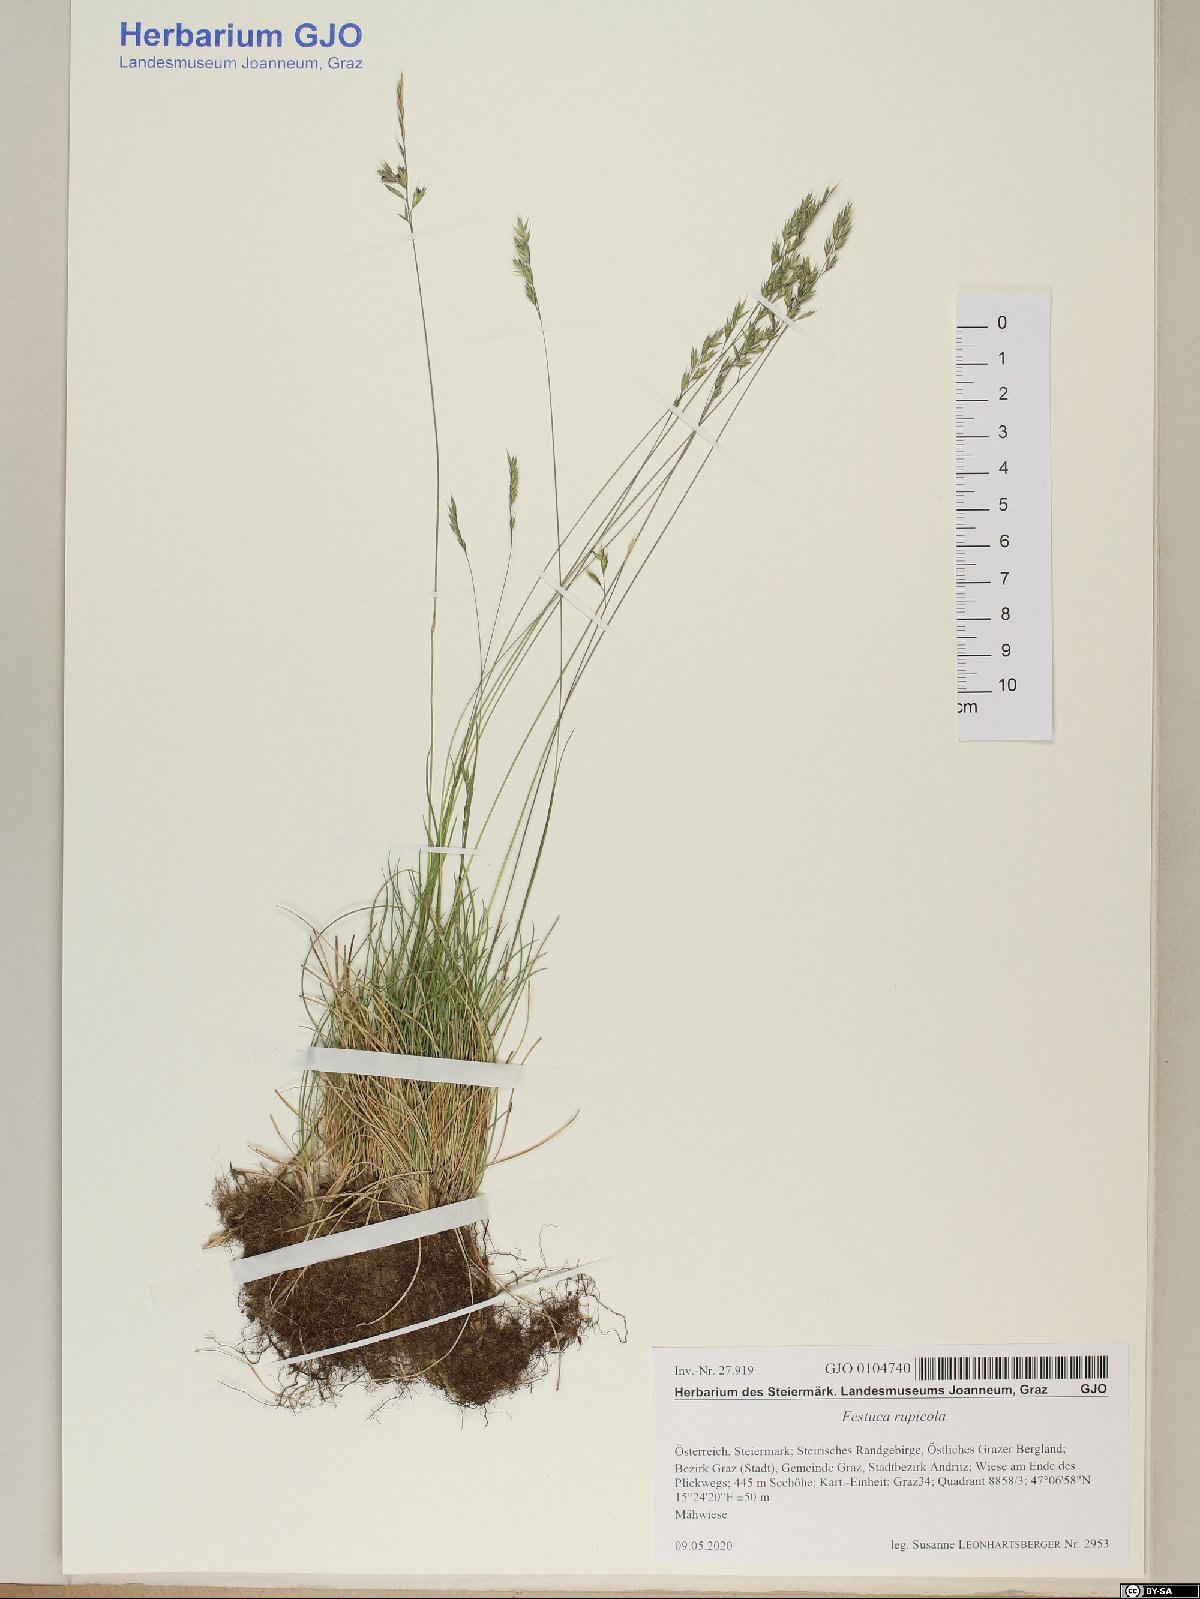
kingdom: Plantae
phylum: Tracheophyta
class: Liliopsida
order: Poales
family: Poaceae
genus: Festuca
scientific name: Festuca rupicola
